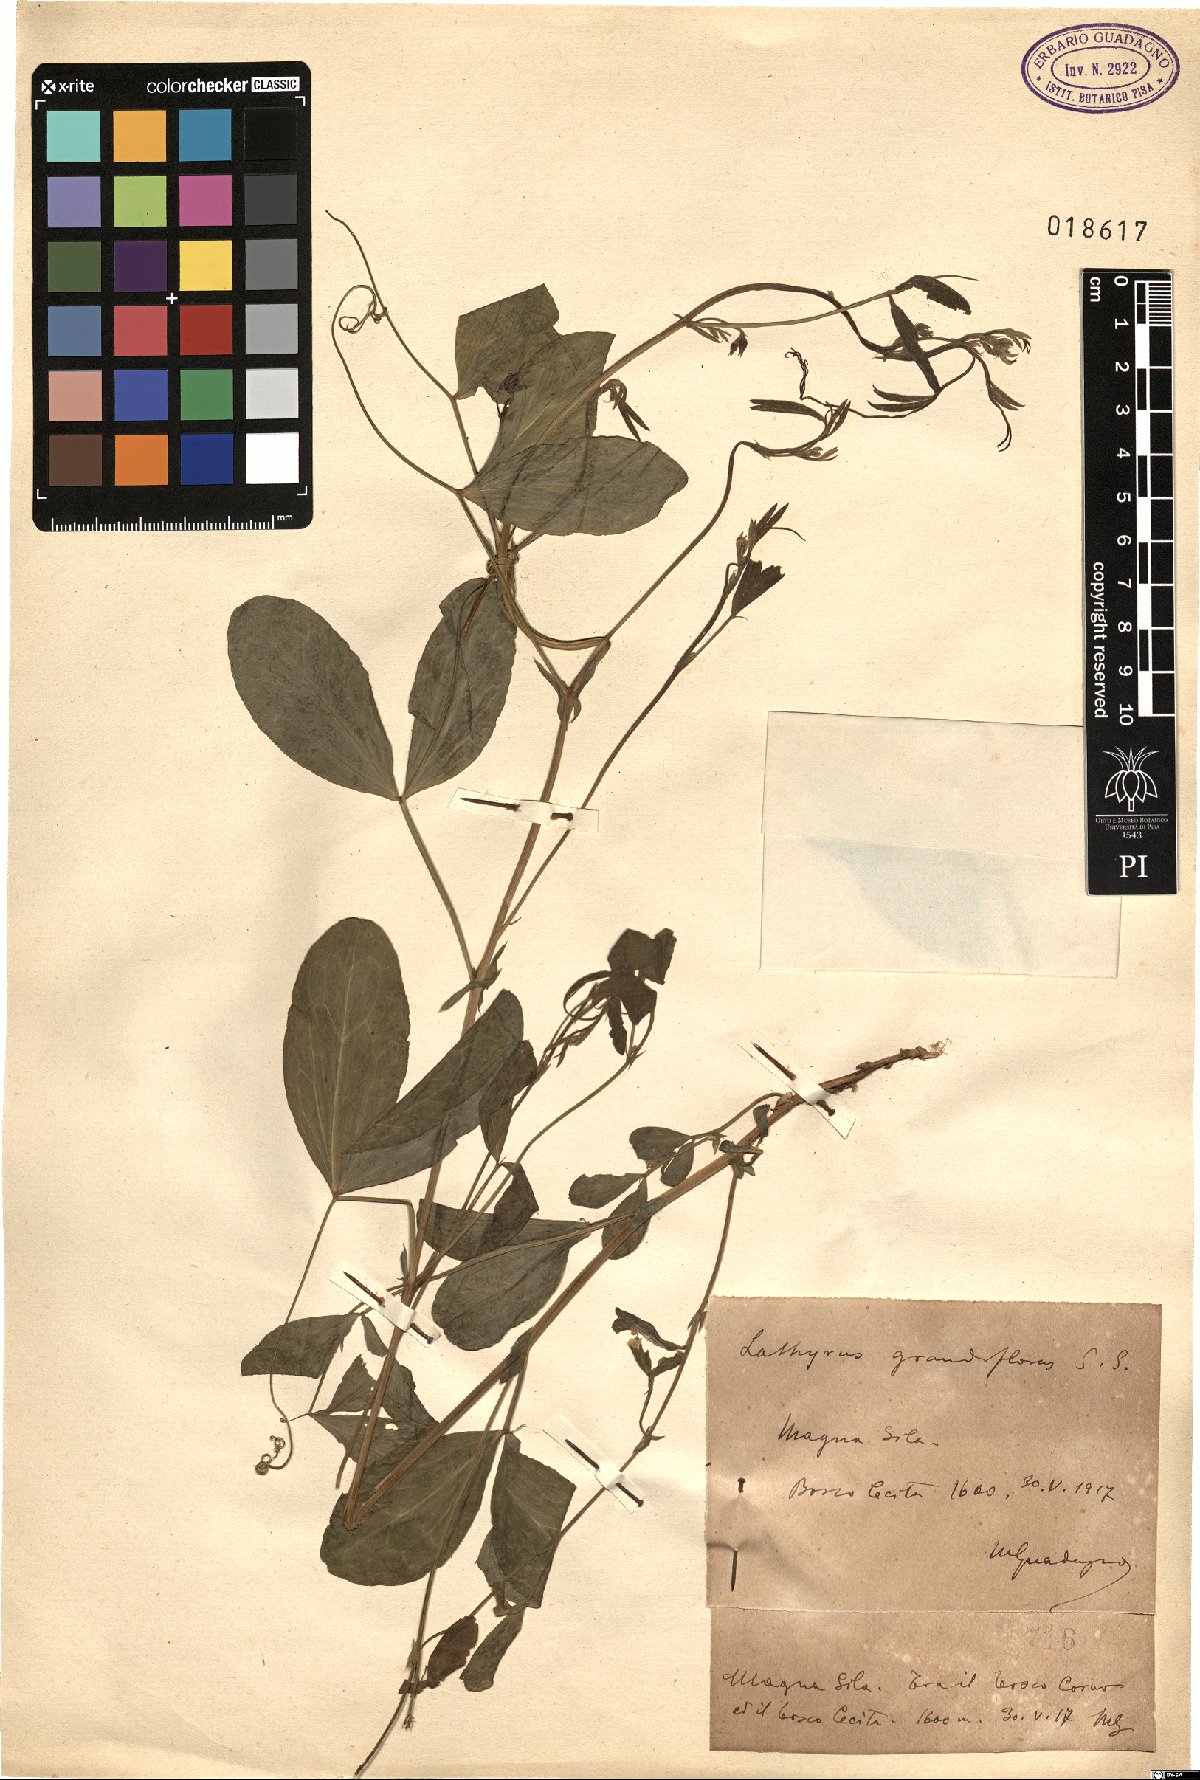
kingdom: Plantae
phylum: Tracheophyta
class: Magnoliopsida
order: Fabales
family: Fabaceae
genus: Lathyrus
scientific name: Lathyrus grandiflorus
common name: Two-flowered everlasting-pea
